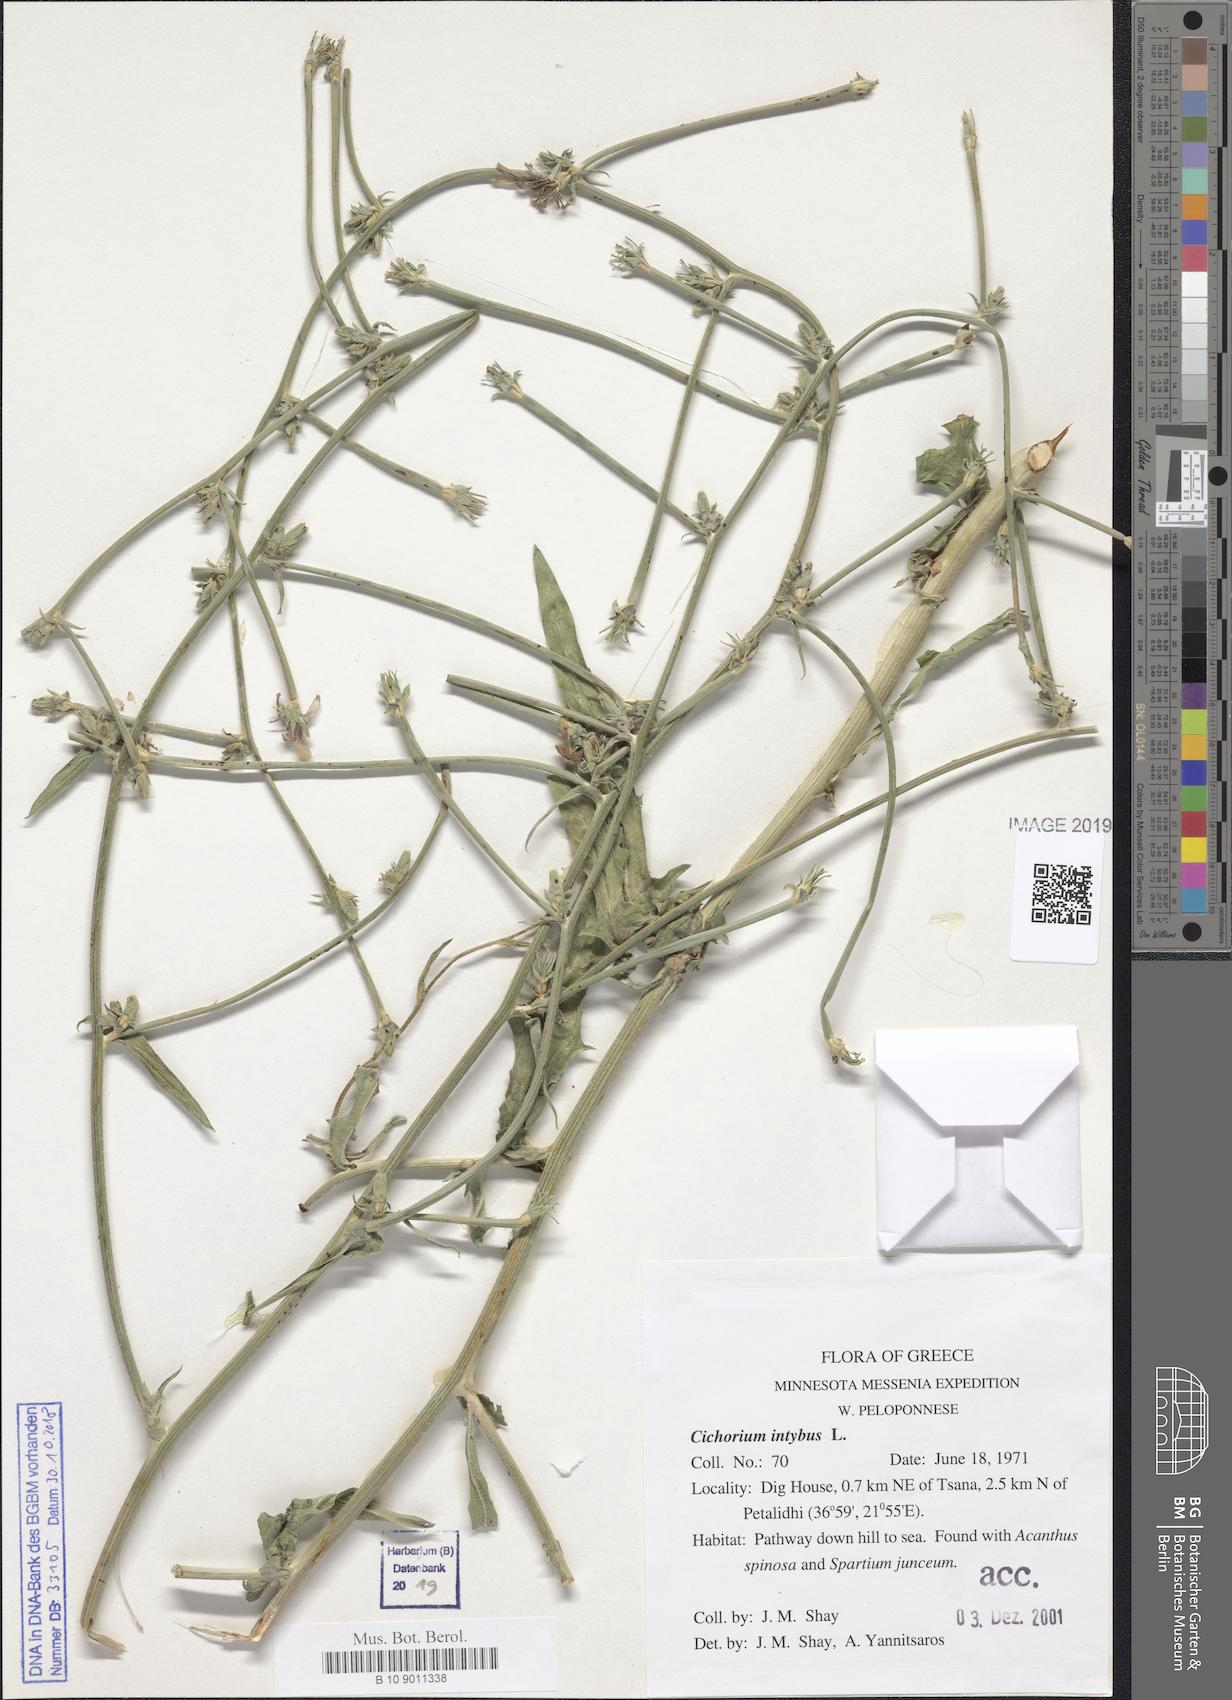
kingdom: Plantae
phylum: Tracheophyta
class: Magnoliopsida
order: Asterales
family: Asteraceae
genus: Cichorium
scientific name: Cichorium intybus
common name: Chicory
